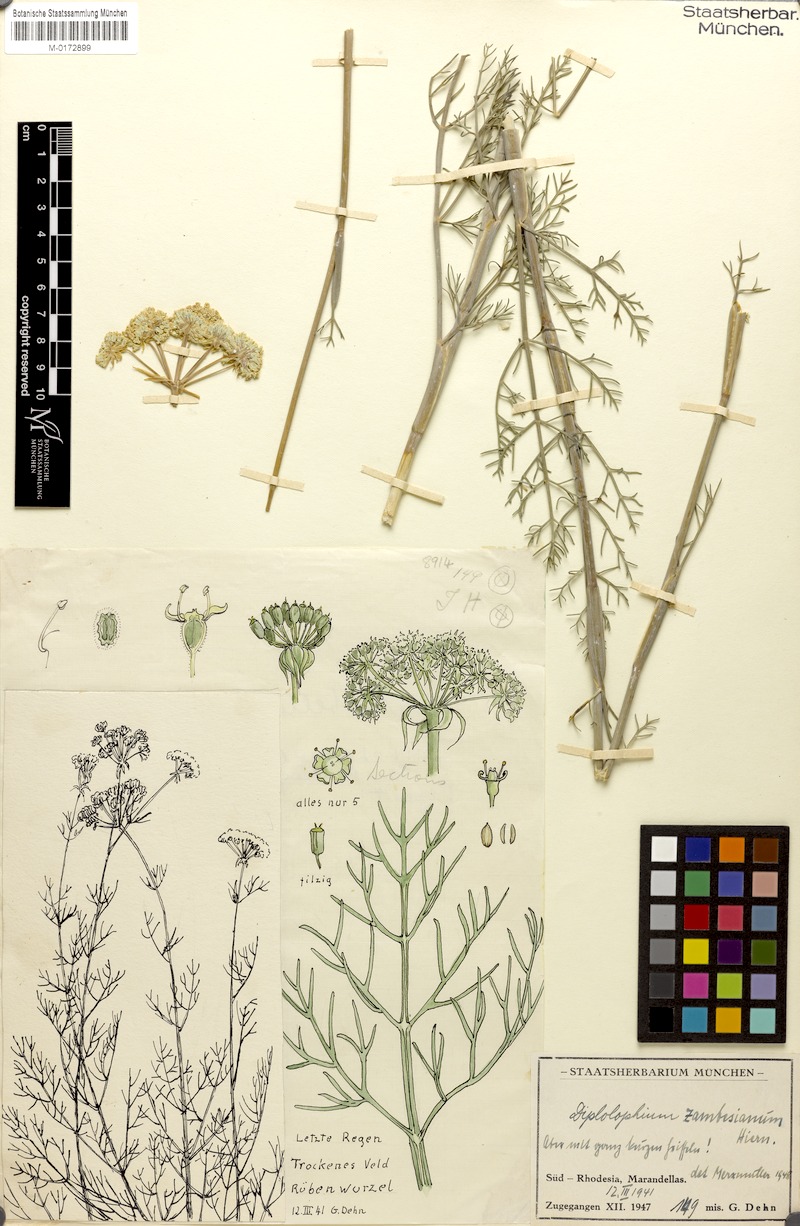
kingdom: Plantae
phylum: Tracheophyta
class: Magnoliopsida
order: Apiales
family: Apiaceae
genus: Diplolophium
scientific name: Diplolophium zambesianum
